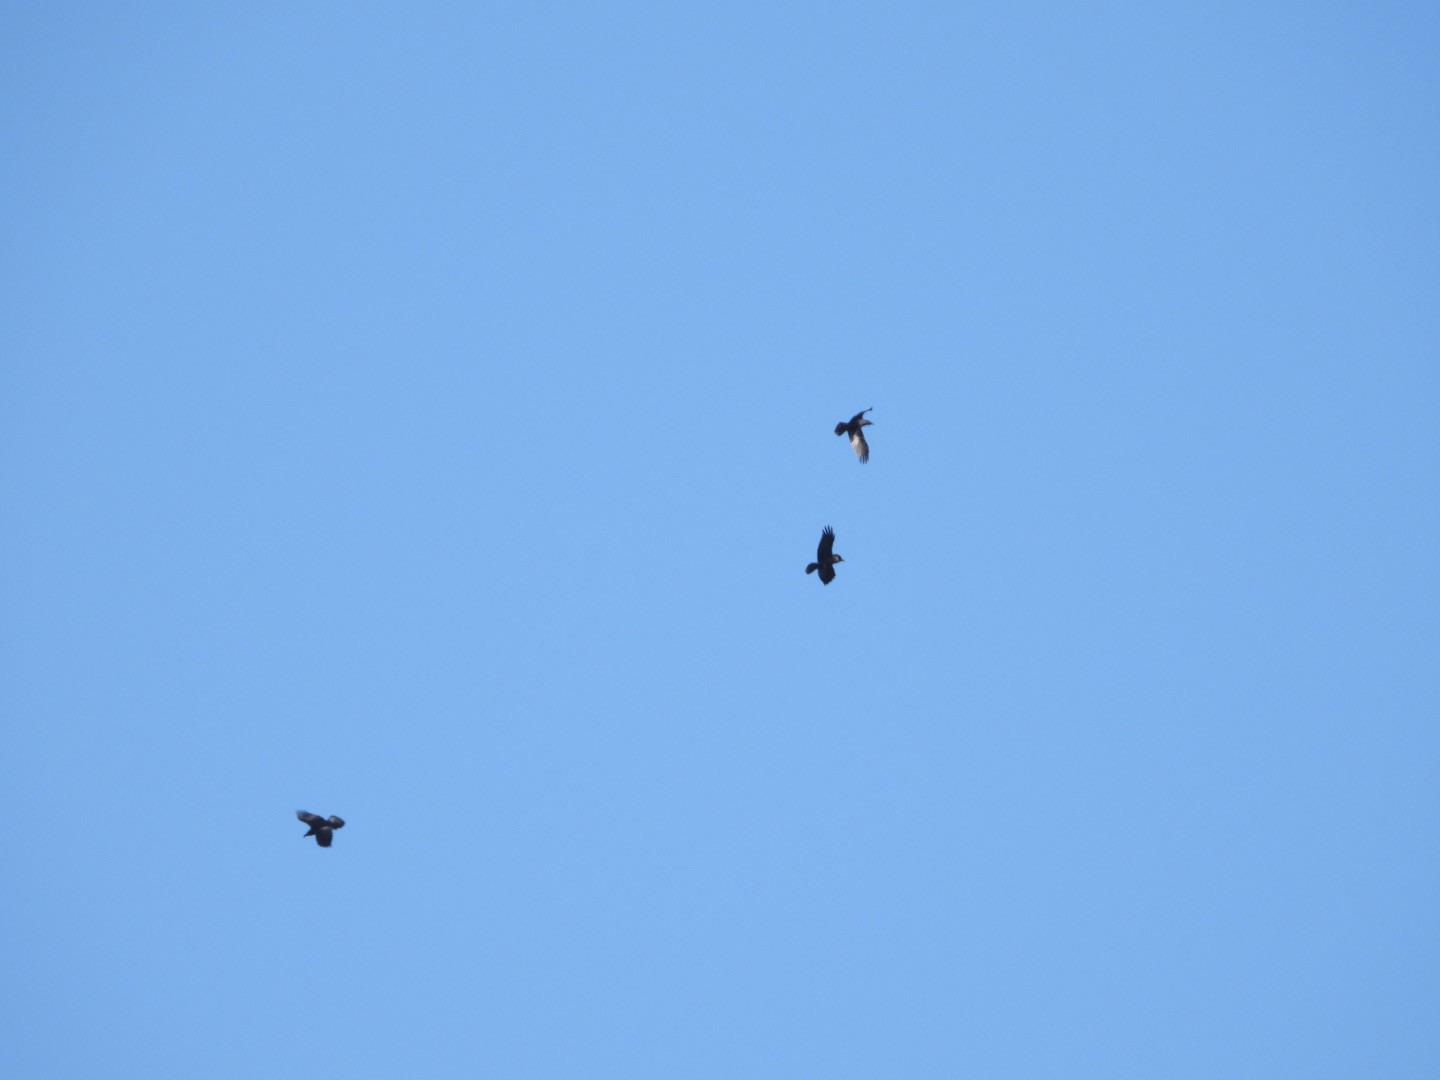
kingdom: Animalia
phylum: Chordata
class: Aves
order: Passeriformes
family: Corvidae
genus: Corvus
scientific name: Corvus corax
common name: Ravn
